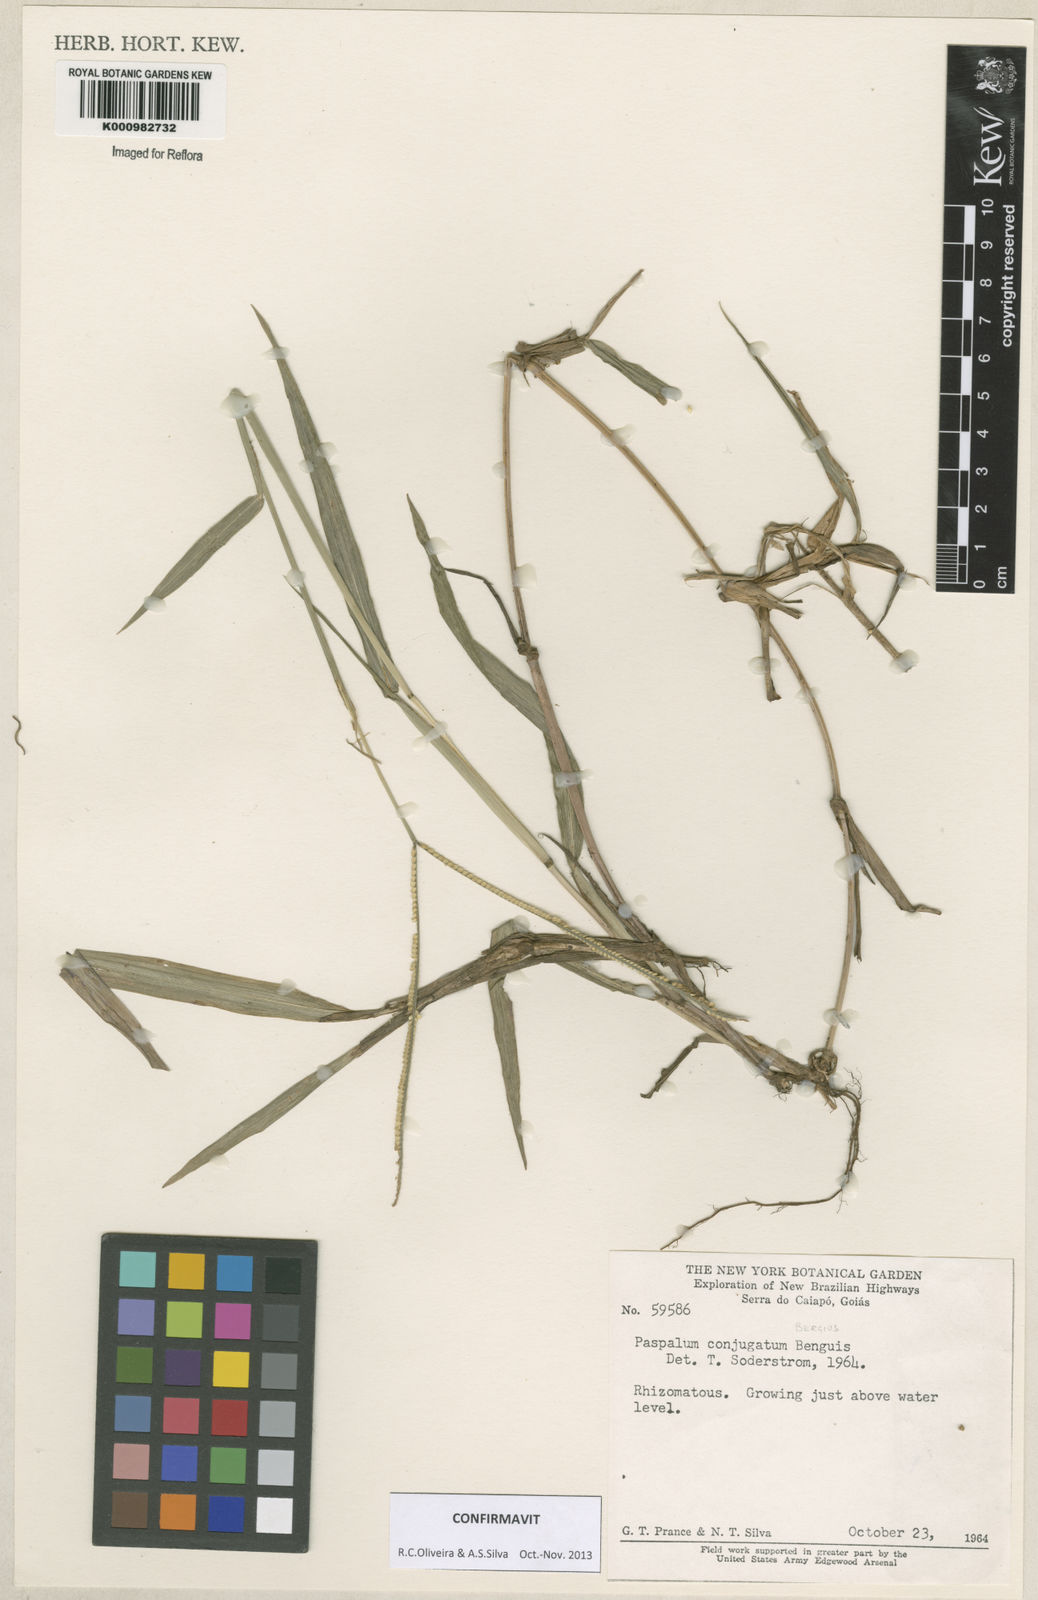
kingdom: Plantae
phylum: Tracheophyta
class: Liliopsida
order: Poales
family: Poaceae
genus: Paspalum
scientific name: Paspalum conjugatum
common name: Hilograss
